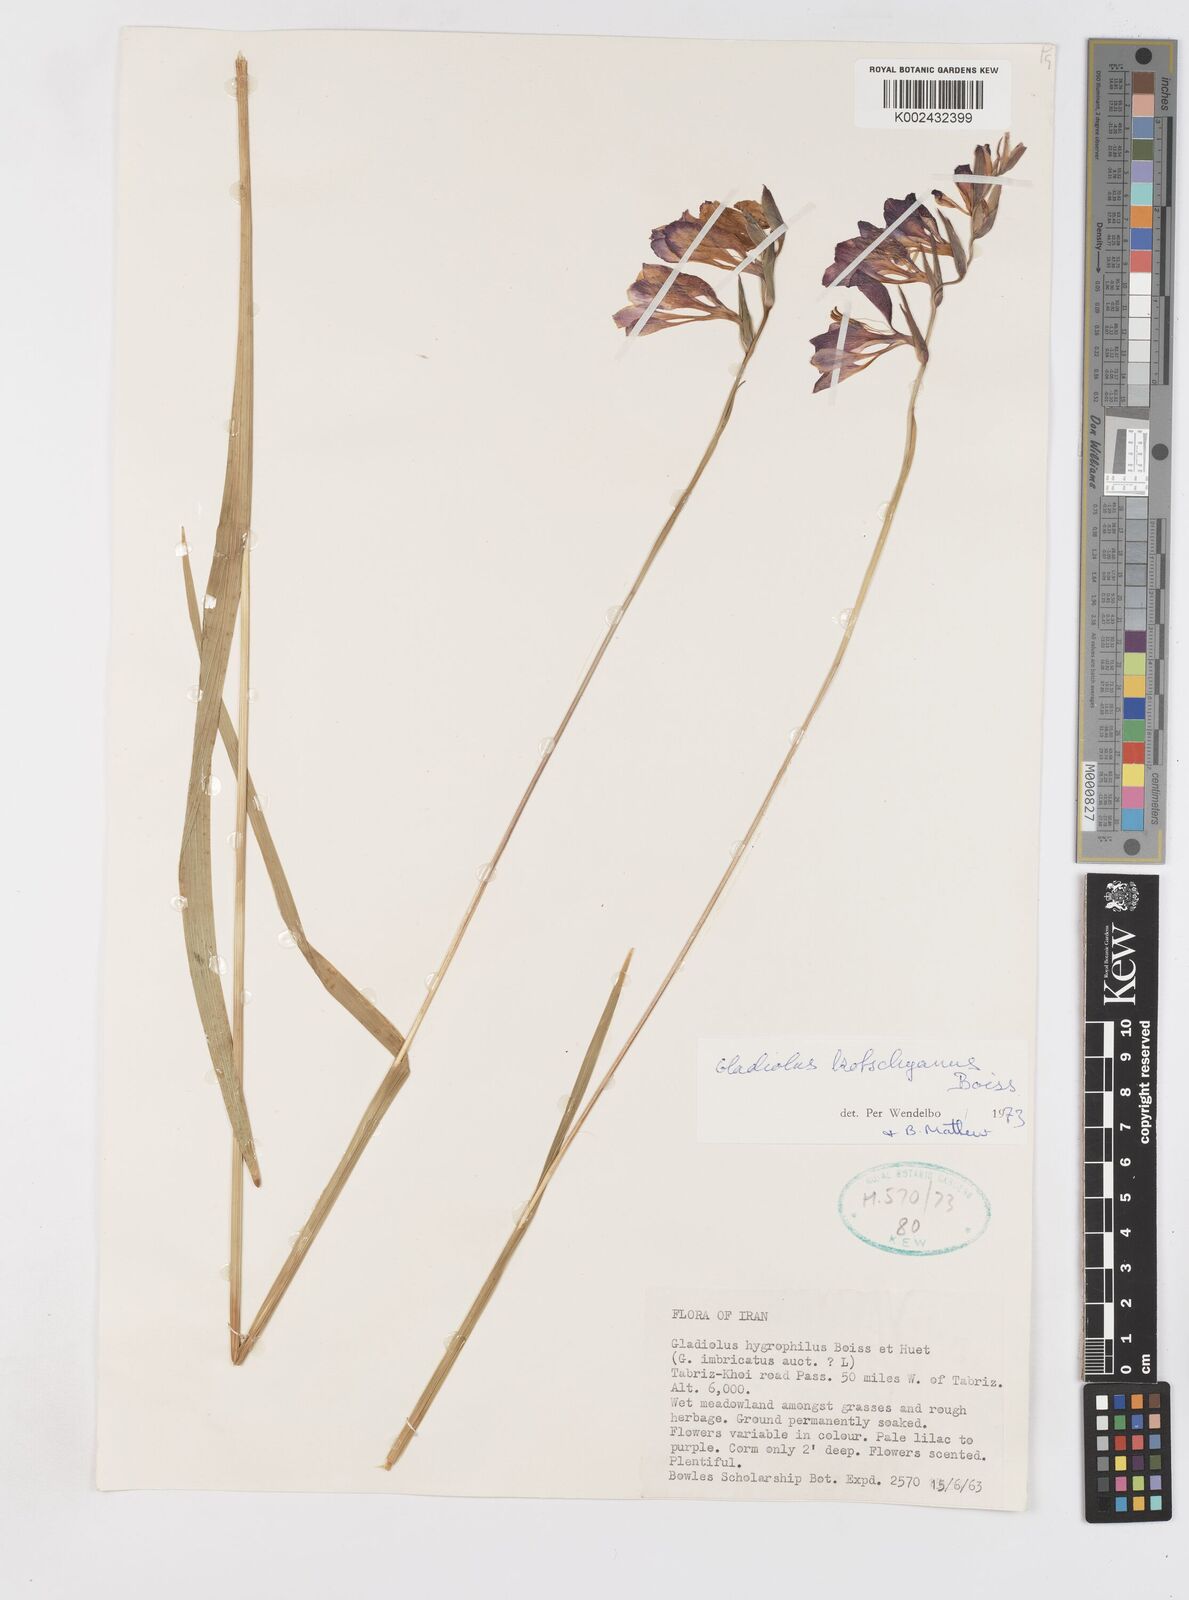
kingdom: Plantae
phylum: Tracheophyta
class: Liliopsida
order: Asparagales
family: Iridaceae
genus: Gladiolus
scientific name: Gladiolus kotschyanus
